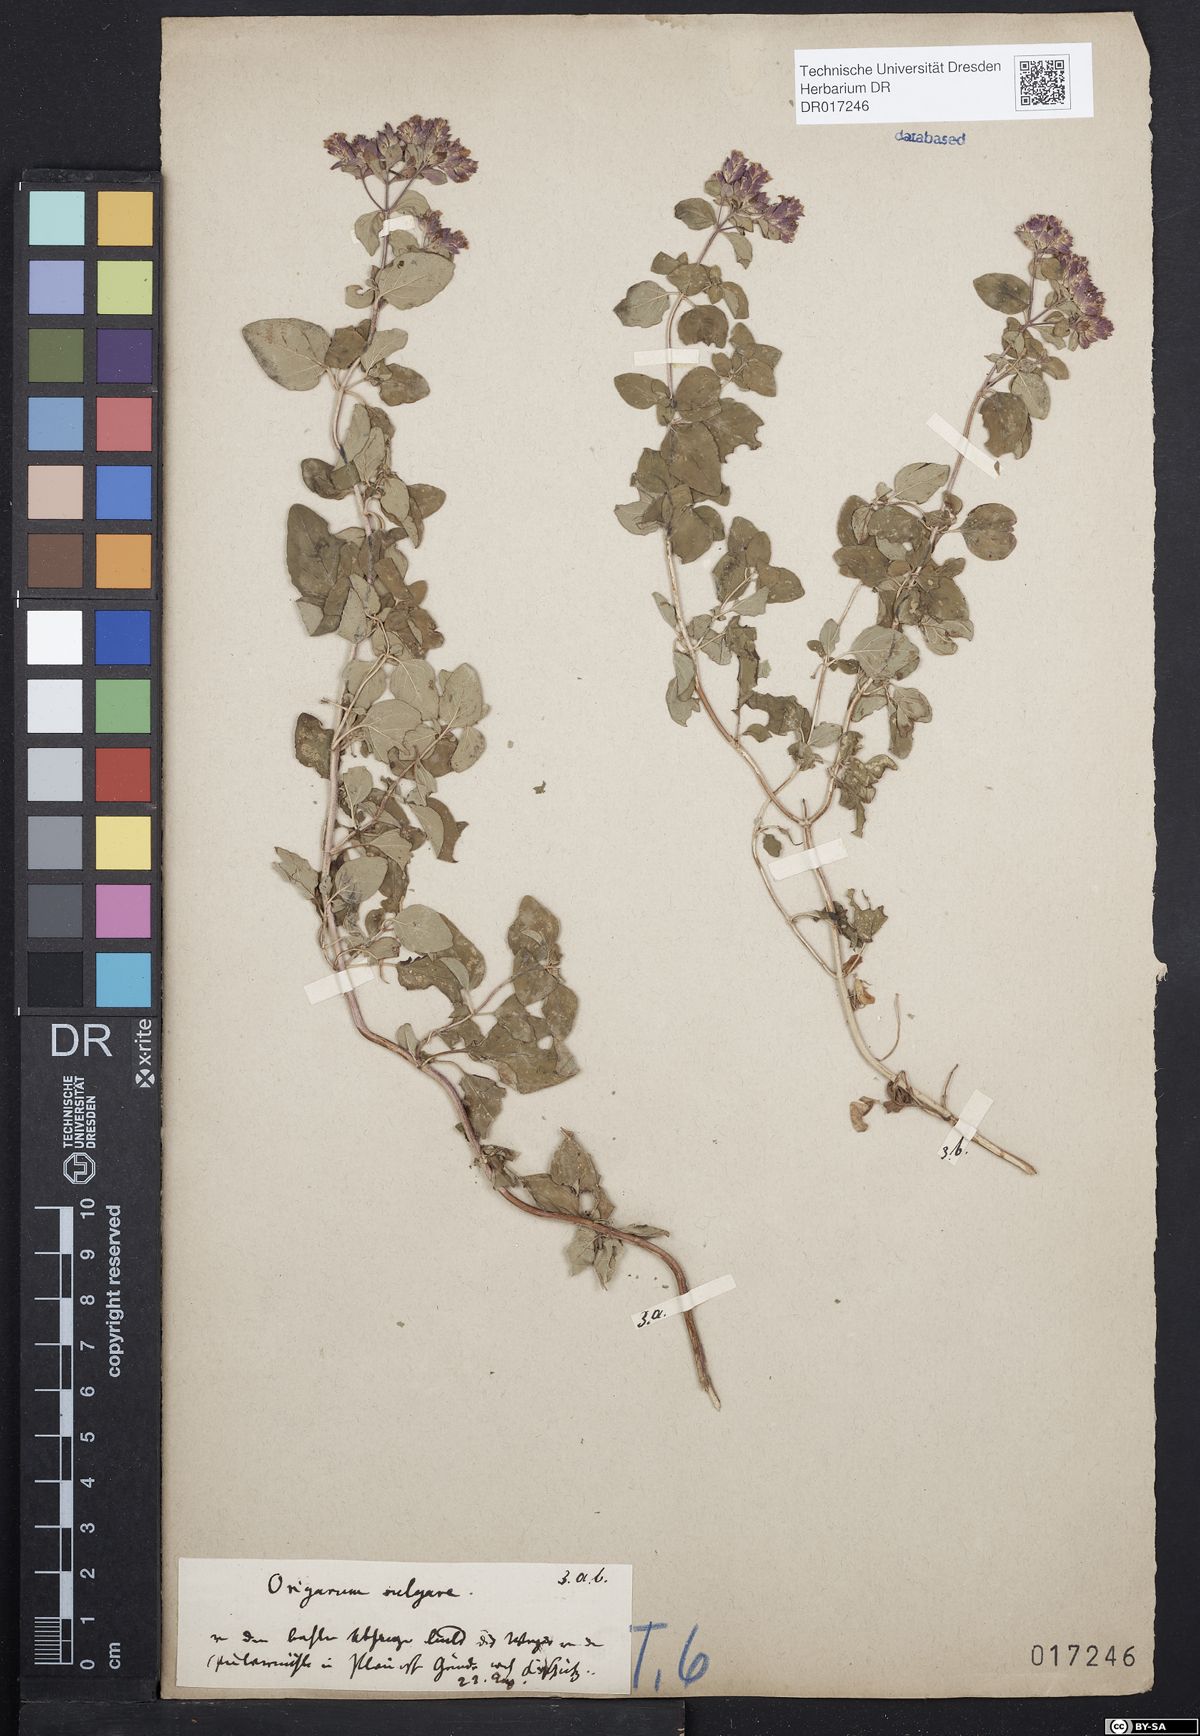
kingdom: Plantae
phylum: Tracheophyta
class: Magnoliopsida
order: Lamiales
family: Lamiaceae
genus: Origanum
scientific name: Origanum vulgare
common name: Wild marjoram
